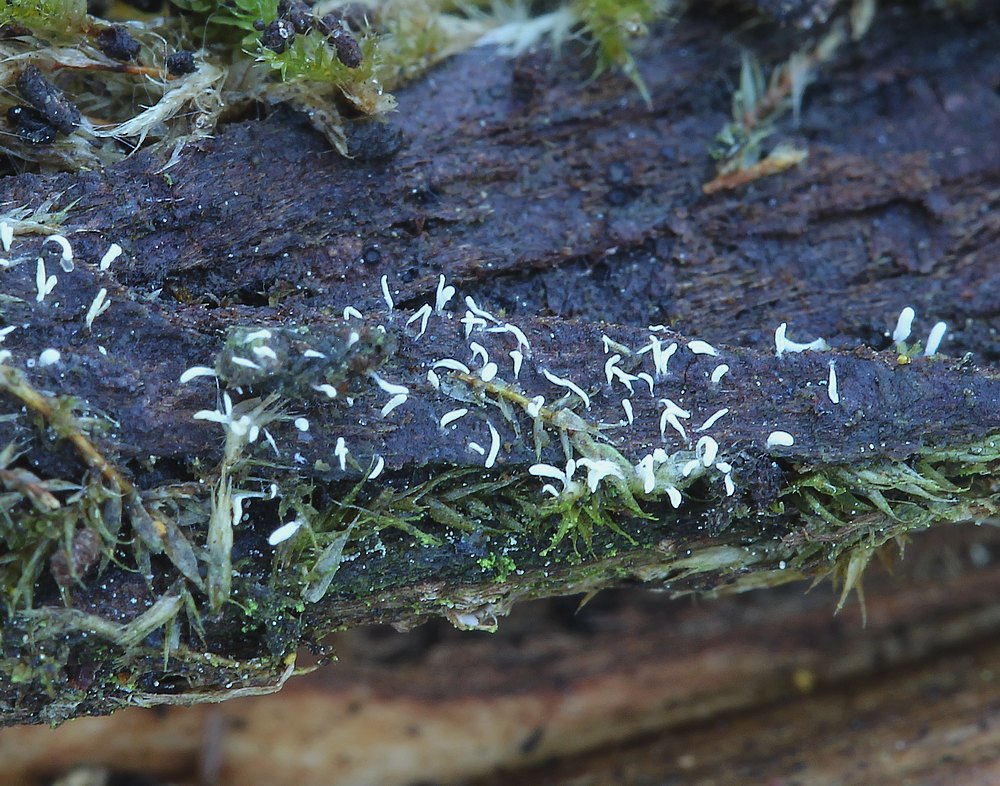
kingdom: Fungi
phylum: Basidiomycota
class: Agaricomycetes
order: Hymenochaetales
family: Rickenellaceae
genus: Bryopistillaria
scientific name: Bryopistillaria sagittiformis
